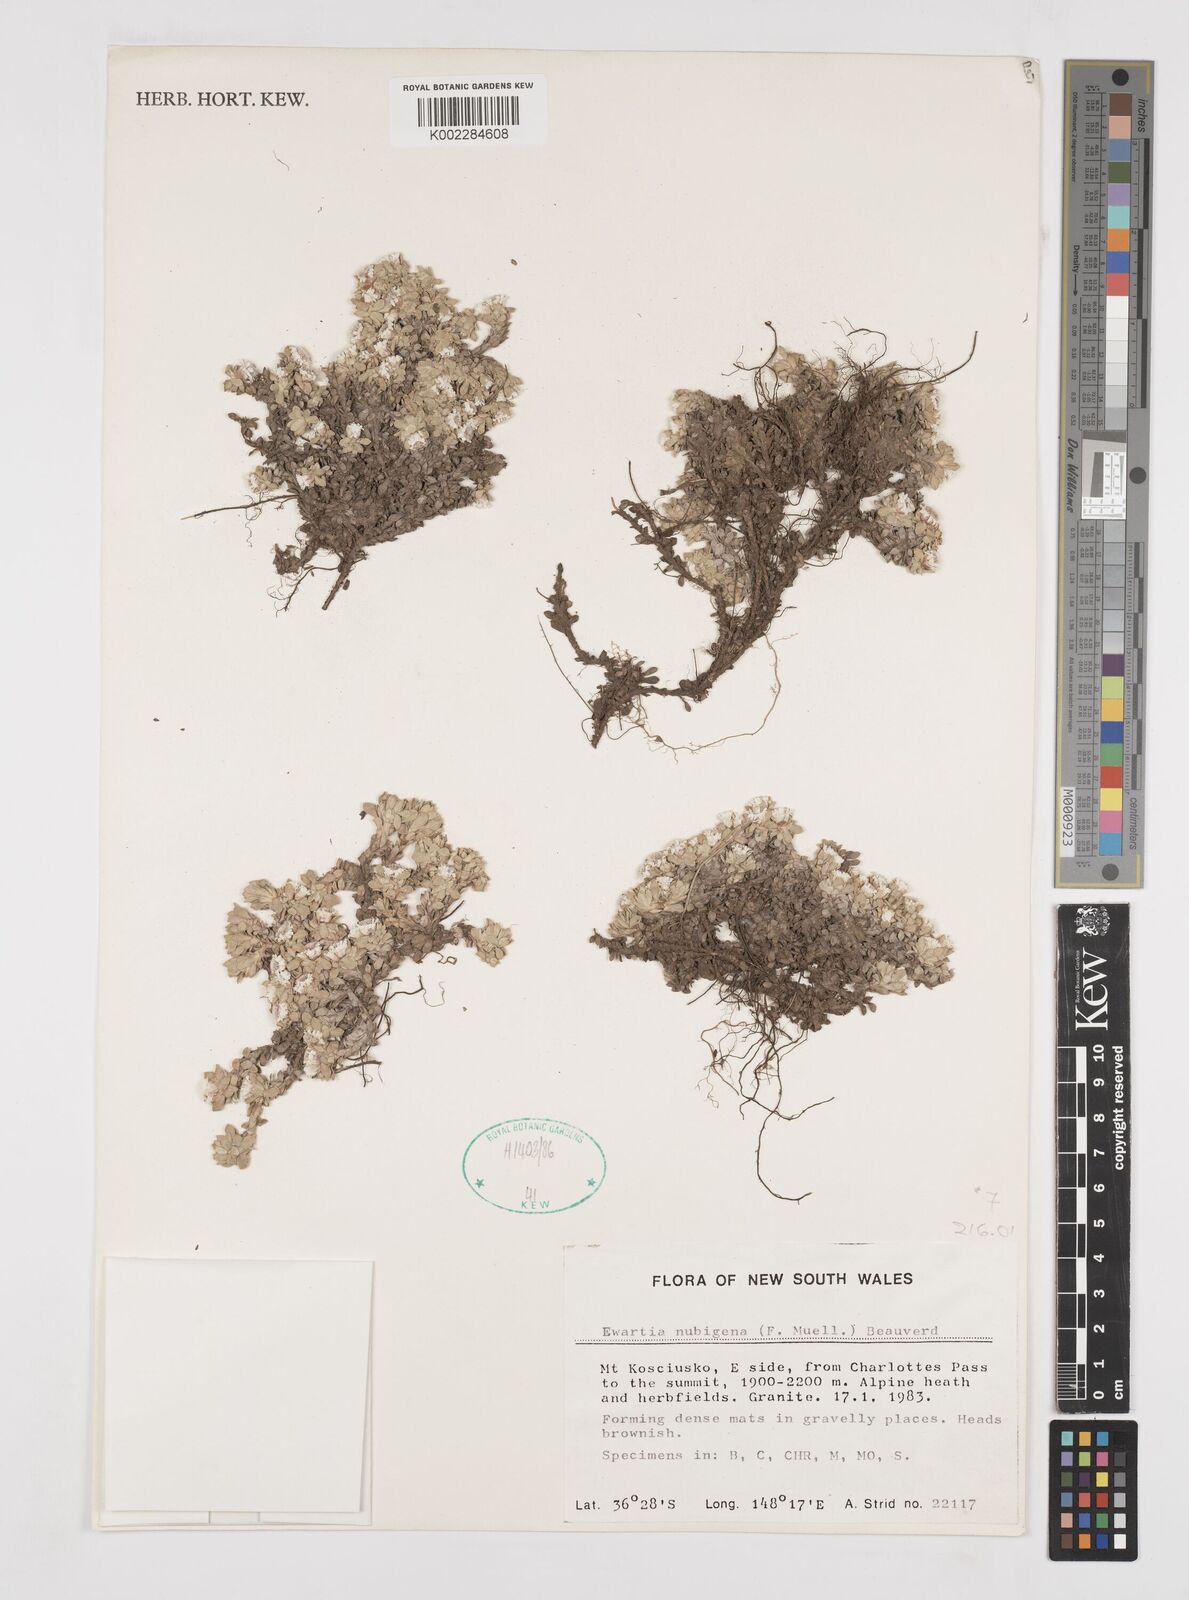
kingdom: Plantae
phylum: Tracheophyta
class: Magnoliopsida
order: Asterales
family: Asteraceae
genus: Ewartia
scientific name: Ewartia nubigena
